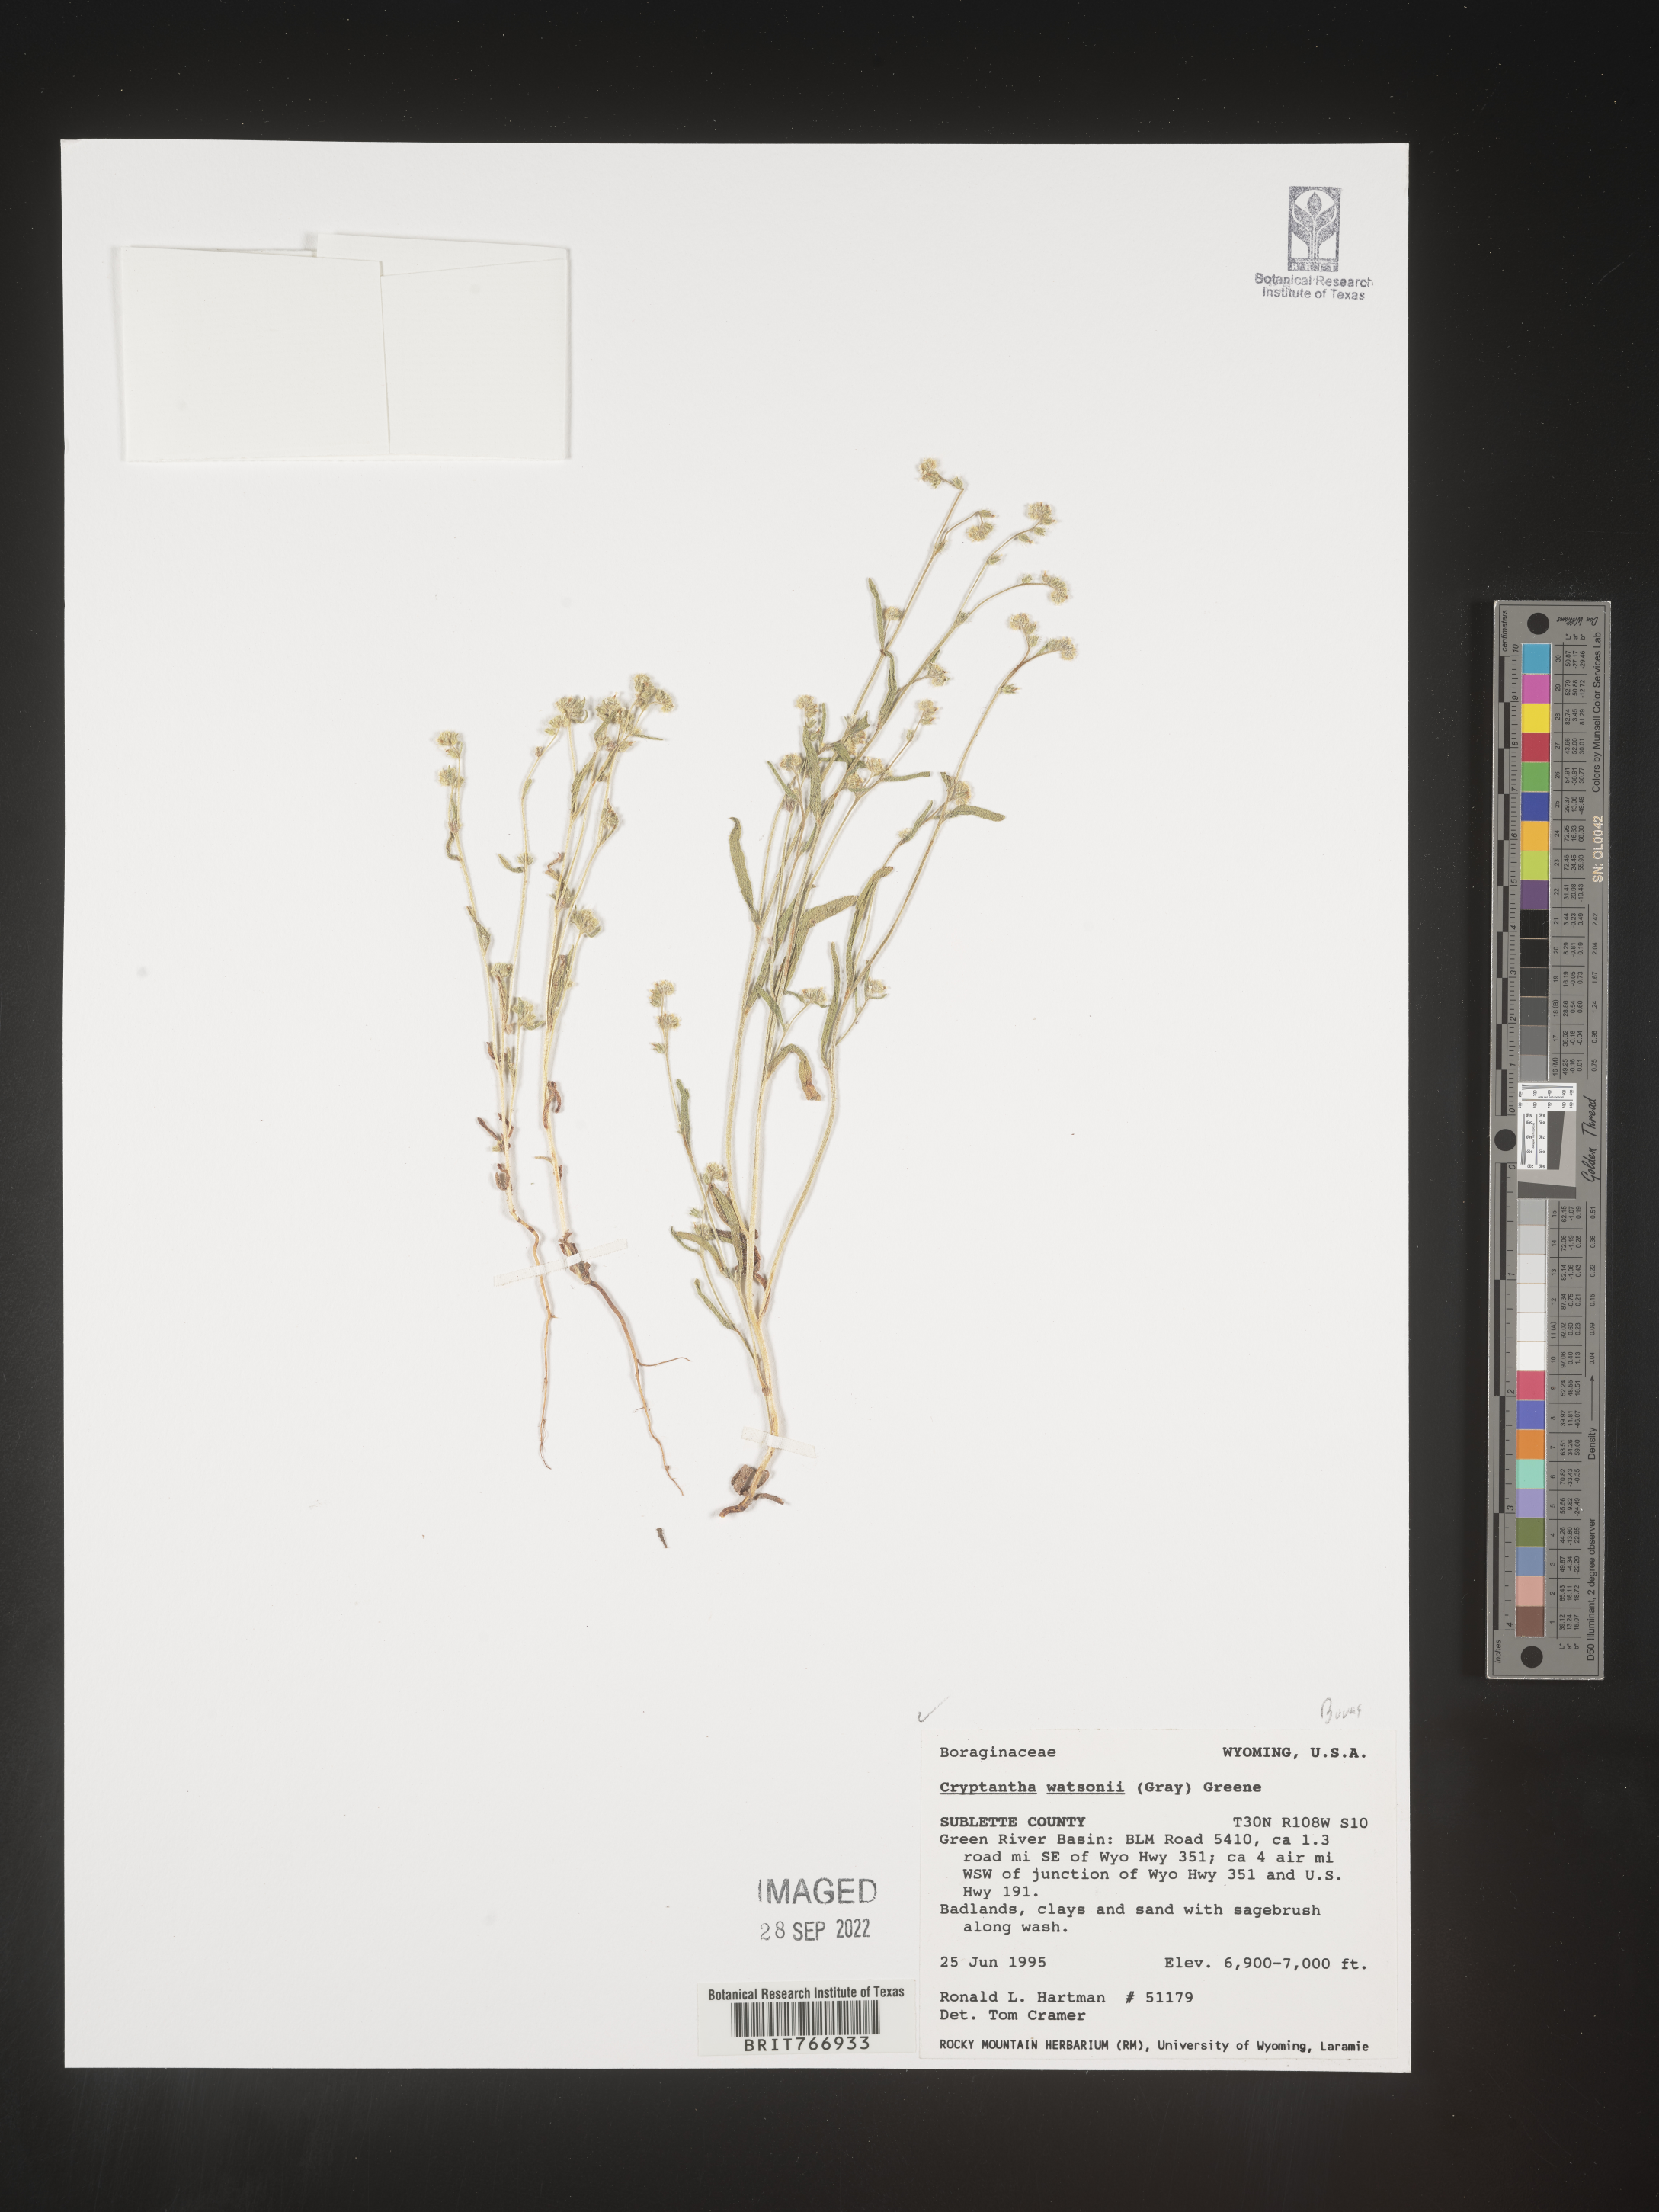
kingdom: Plantae
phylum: Tracheophyta
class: Magnoliopsida
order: Boraginales
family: Boraginaceae
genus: Cryptantha
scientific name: Cryptantha
